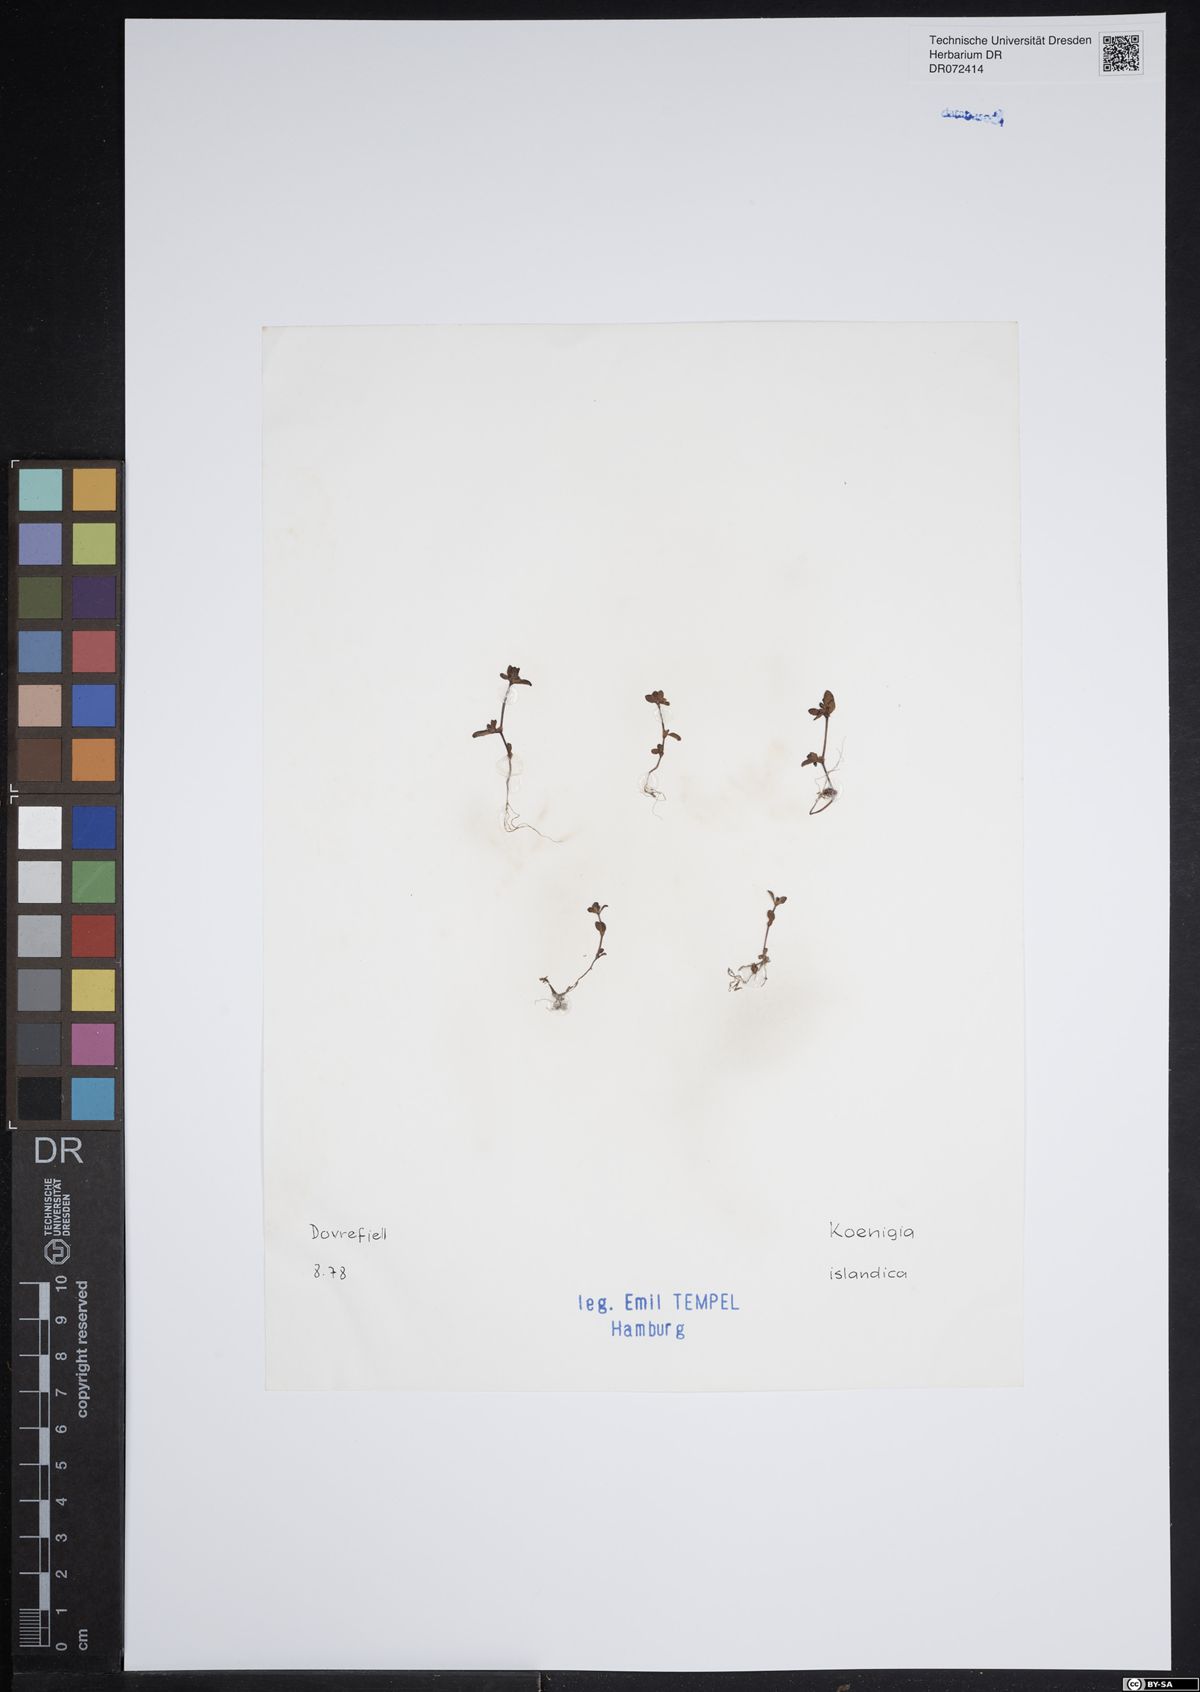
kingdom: Plantae
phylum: Tracheophyta
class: Magnoliopsida
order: Caryophyllales
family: Polygonaceae
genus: Koenigia
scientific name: Koenigia islandica
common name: Iceland-purslane
